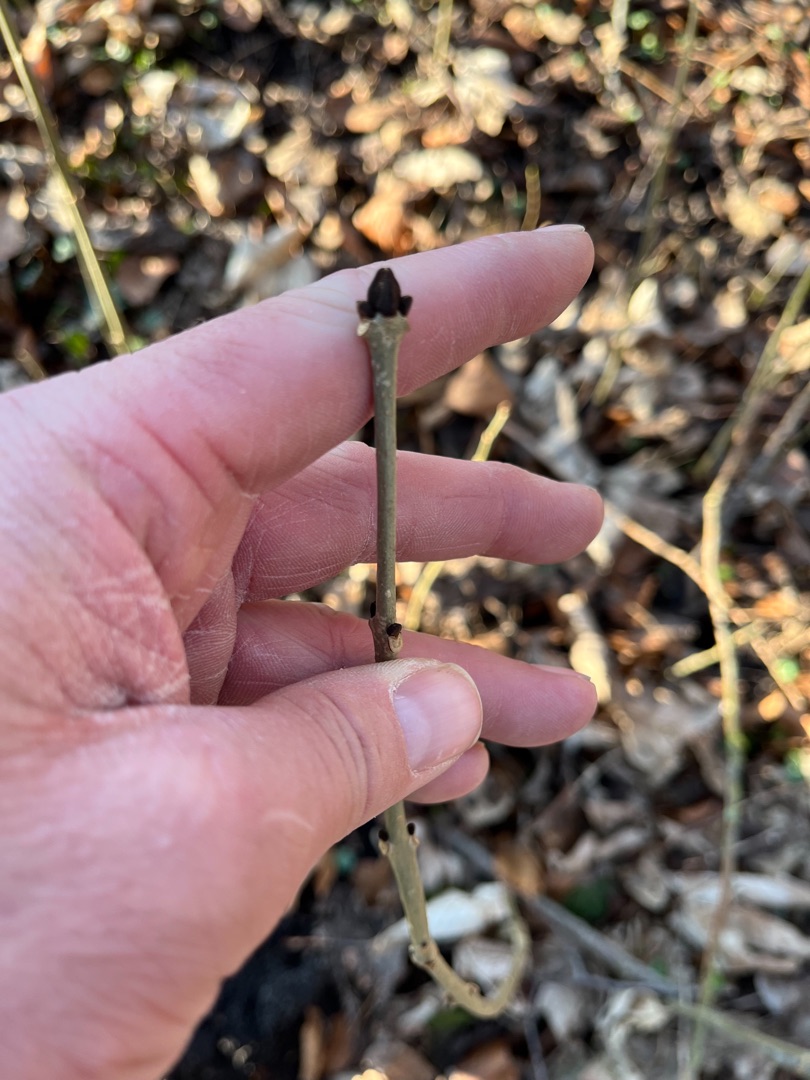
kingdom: Plantae
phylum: Tracheophyta
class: Magnoliopsida
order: Lamiales
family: Oleaceae
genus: Fraxinus
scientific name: Fraxinus excelsior
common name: Ask
